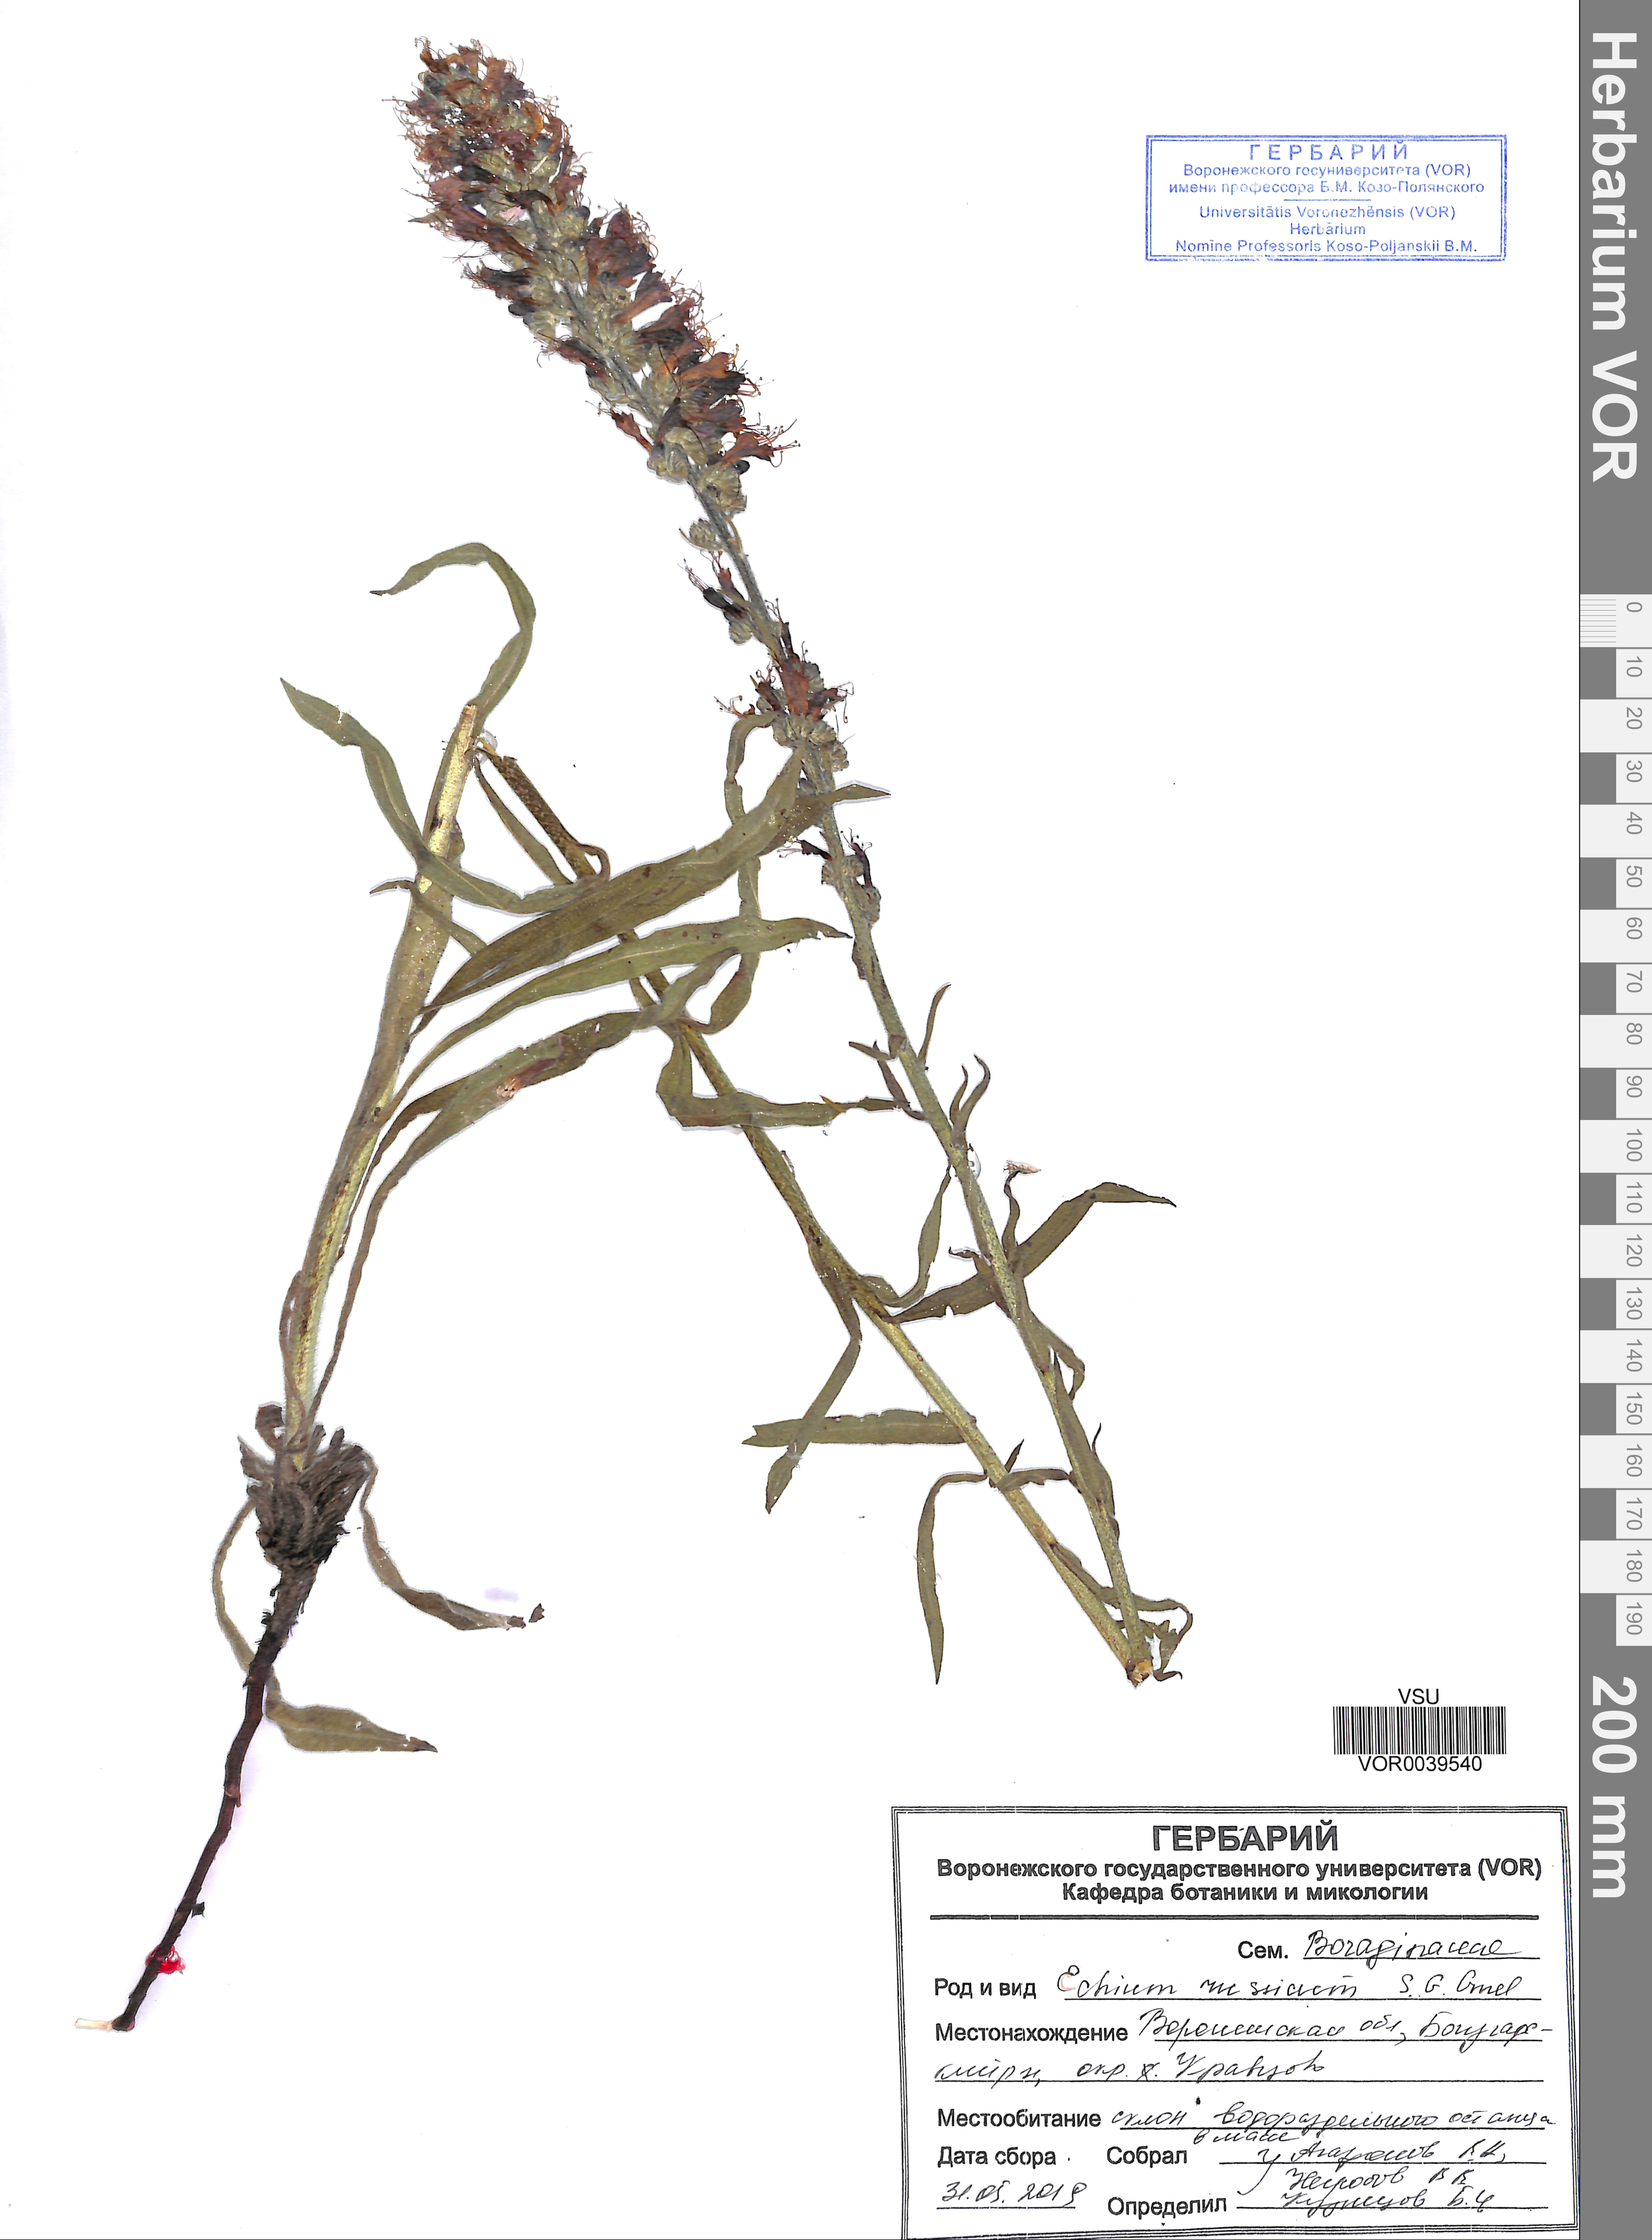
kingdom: Plantae
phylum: Tracheophyta
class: Magnoliopsida
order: Boraginales
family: Boraginaceae
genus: Pontechium
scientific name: Pontechium maculatum
